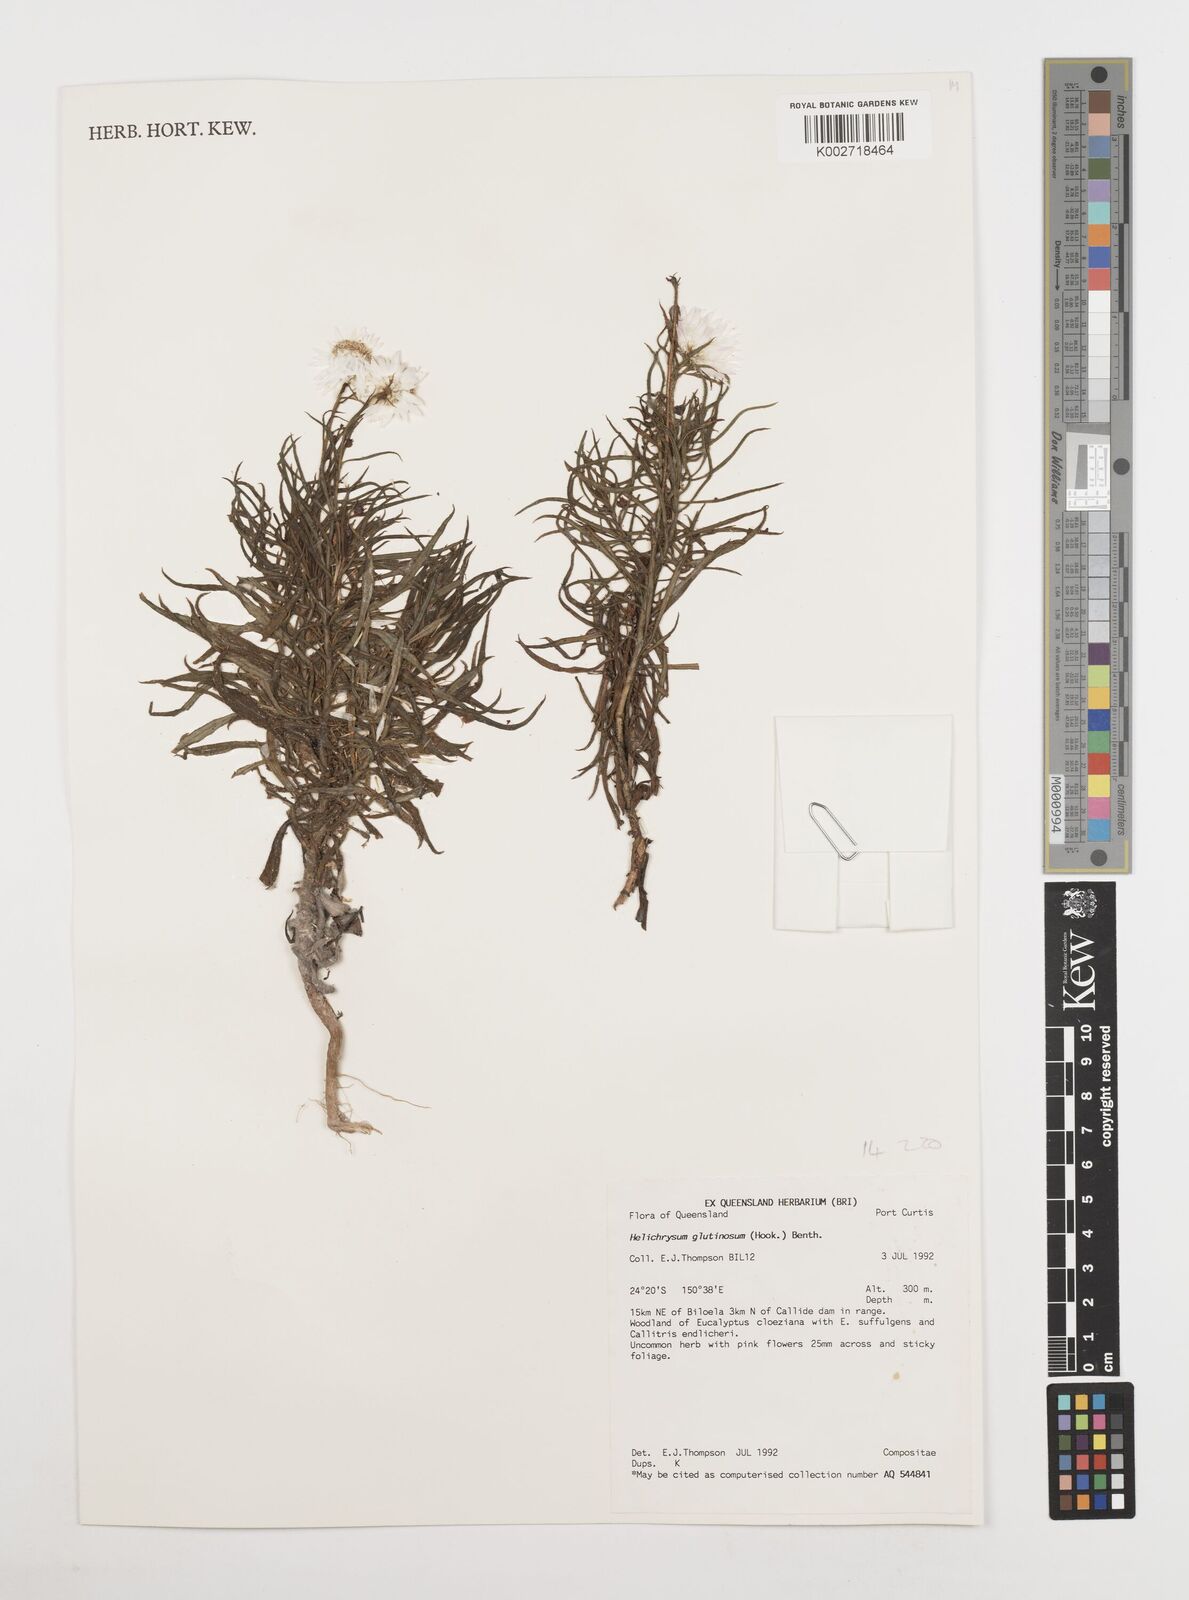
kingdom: Plantae
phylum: Tracheophyta
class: Magnoliopsida
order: Asterales
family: Asteraceae
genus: Coronidium
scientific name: Coronidium glutinosum
